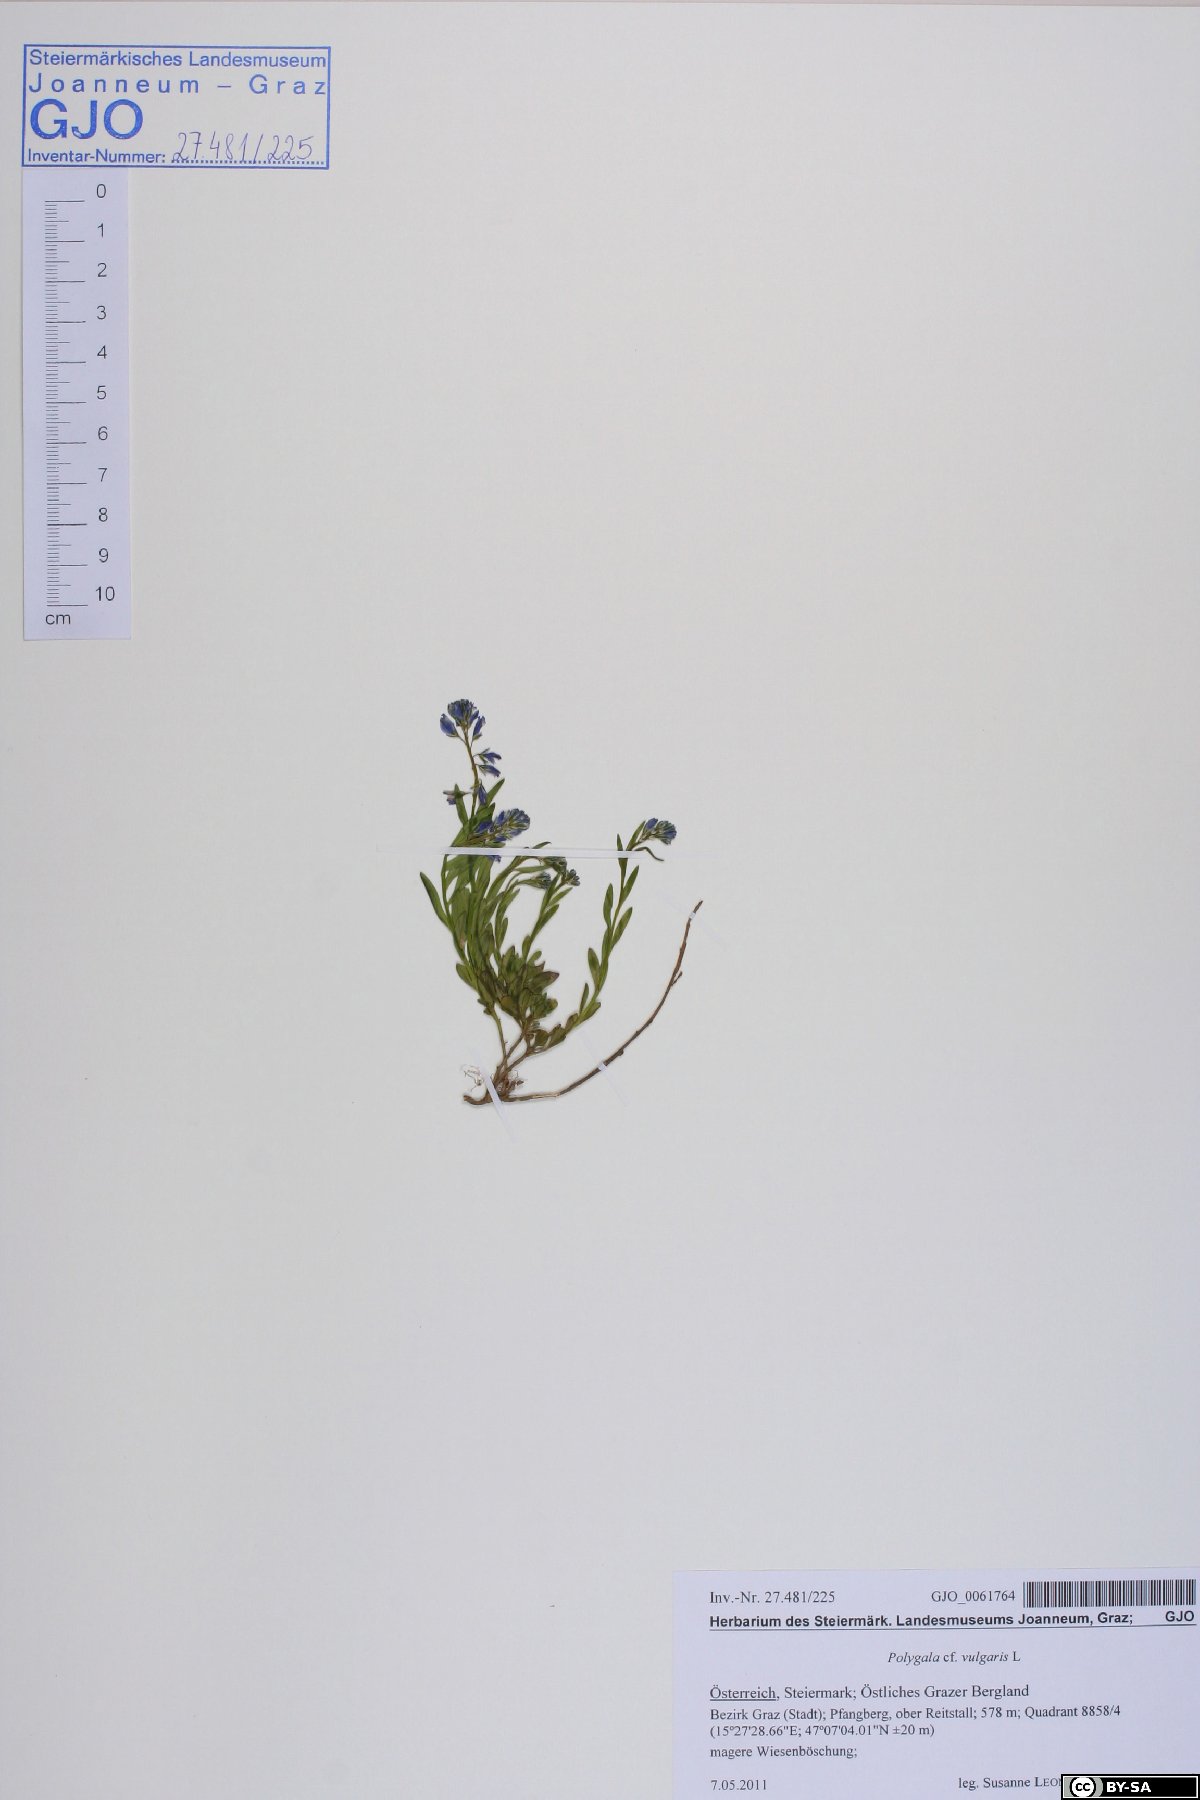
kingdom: Plantae
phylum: Tracheophyta
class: Magnoliopsida
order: Fabales
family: Polygalaceae
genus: Polygala
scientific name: Polygala vulgaris
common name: Common milkwort
